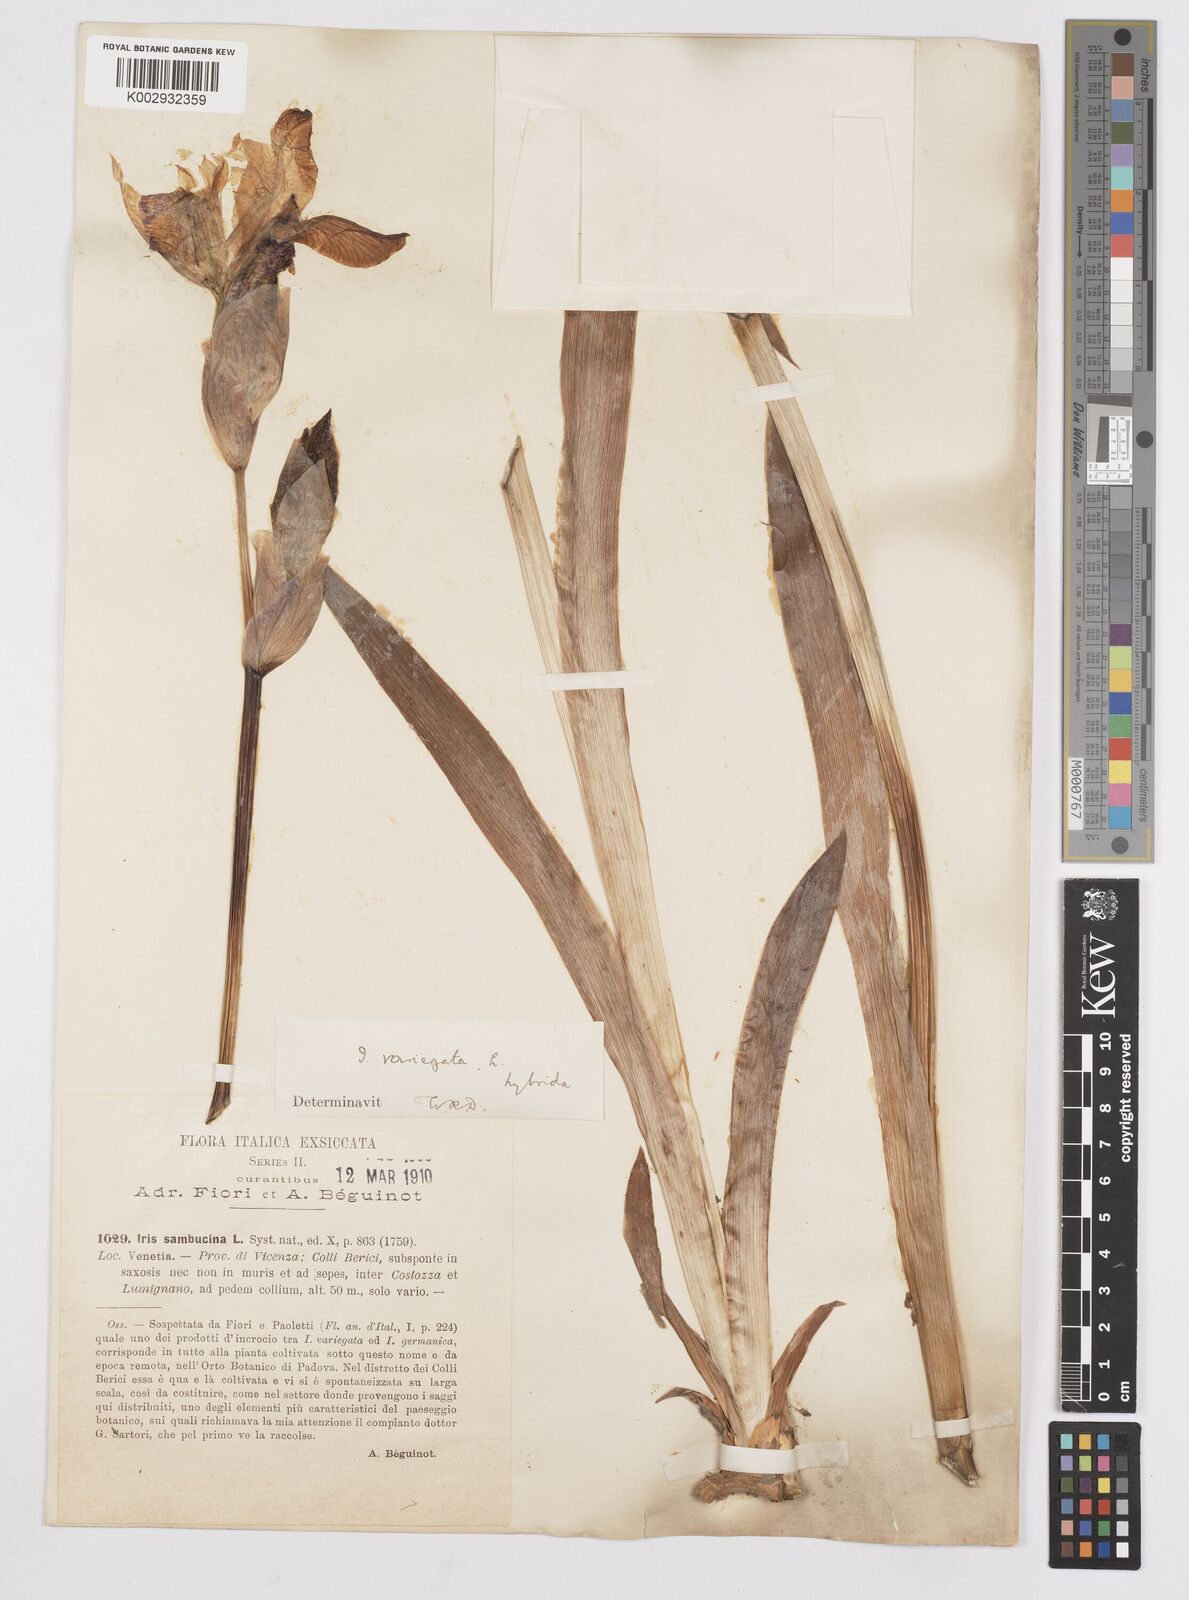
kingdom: Plantae
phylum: Tracheophyta
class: Liliopsida
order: Asparagales
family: Iridaceae
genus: Iris
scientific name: Iris germanica
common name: German iris
